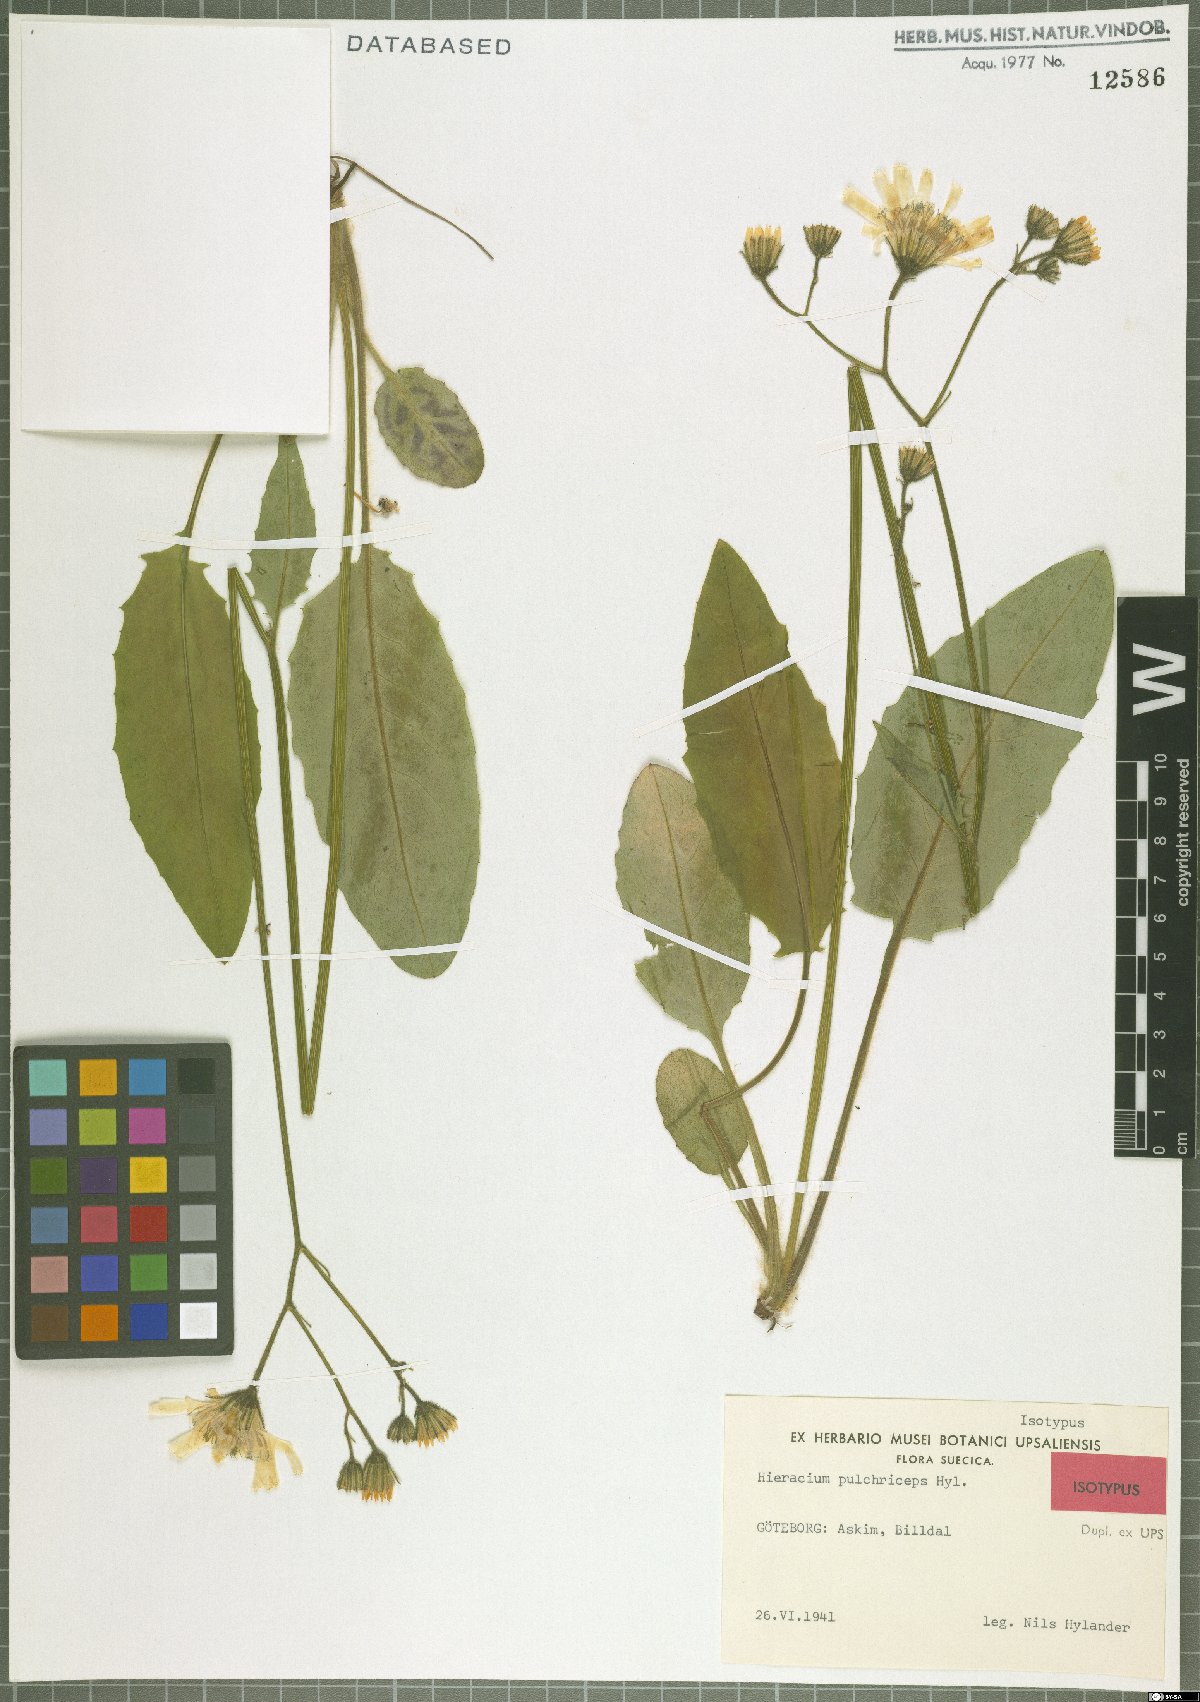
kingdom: Plantae
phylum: Tracheophyta
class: Magnoliopsida
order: Asterales
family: Asteraceae
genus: Hieracium
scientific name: Hieracium pulchriceps
